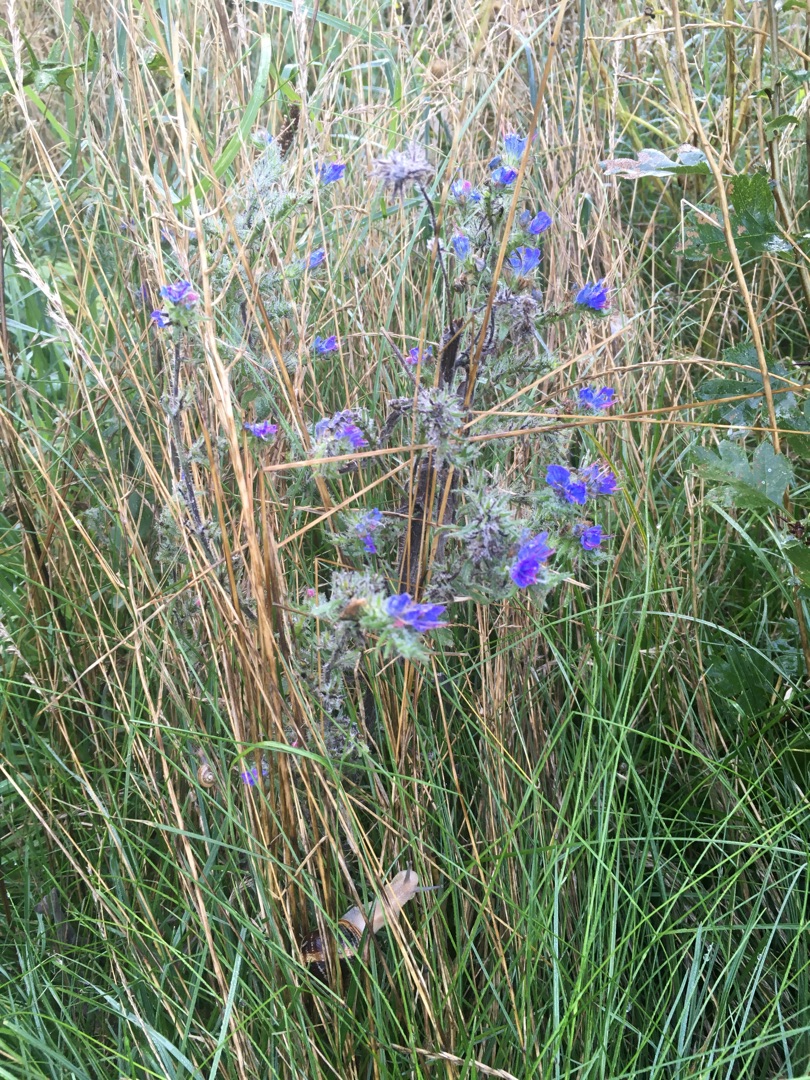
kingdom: Plantae
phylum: Tracheophyta
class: Magnoliopsida
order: Boraginales
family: Boraginaceae
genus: Echium
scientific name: Echium vulgare
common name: Slangehoved
